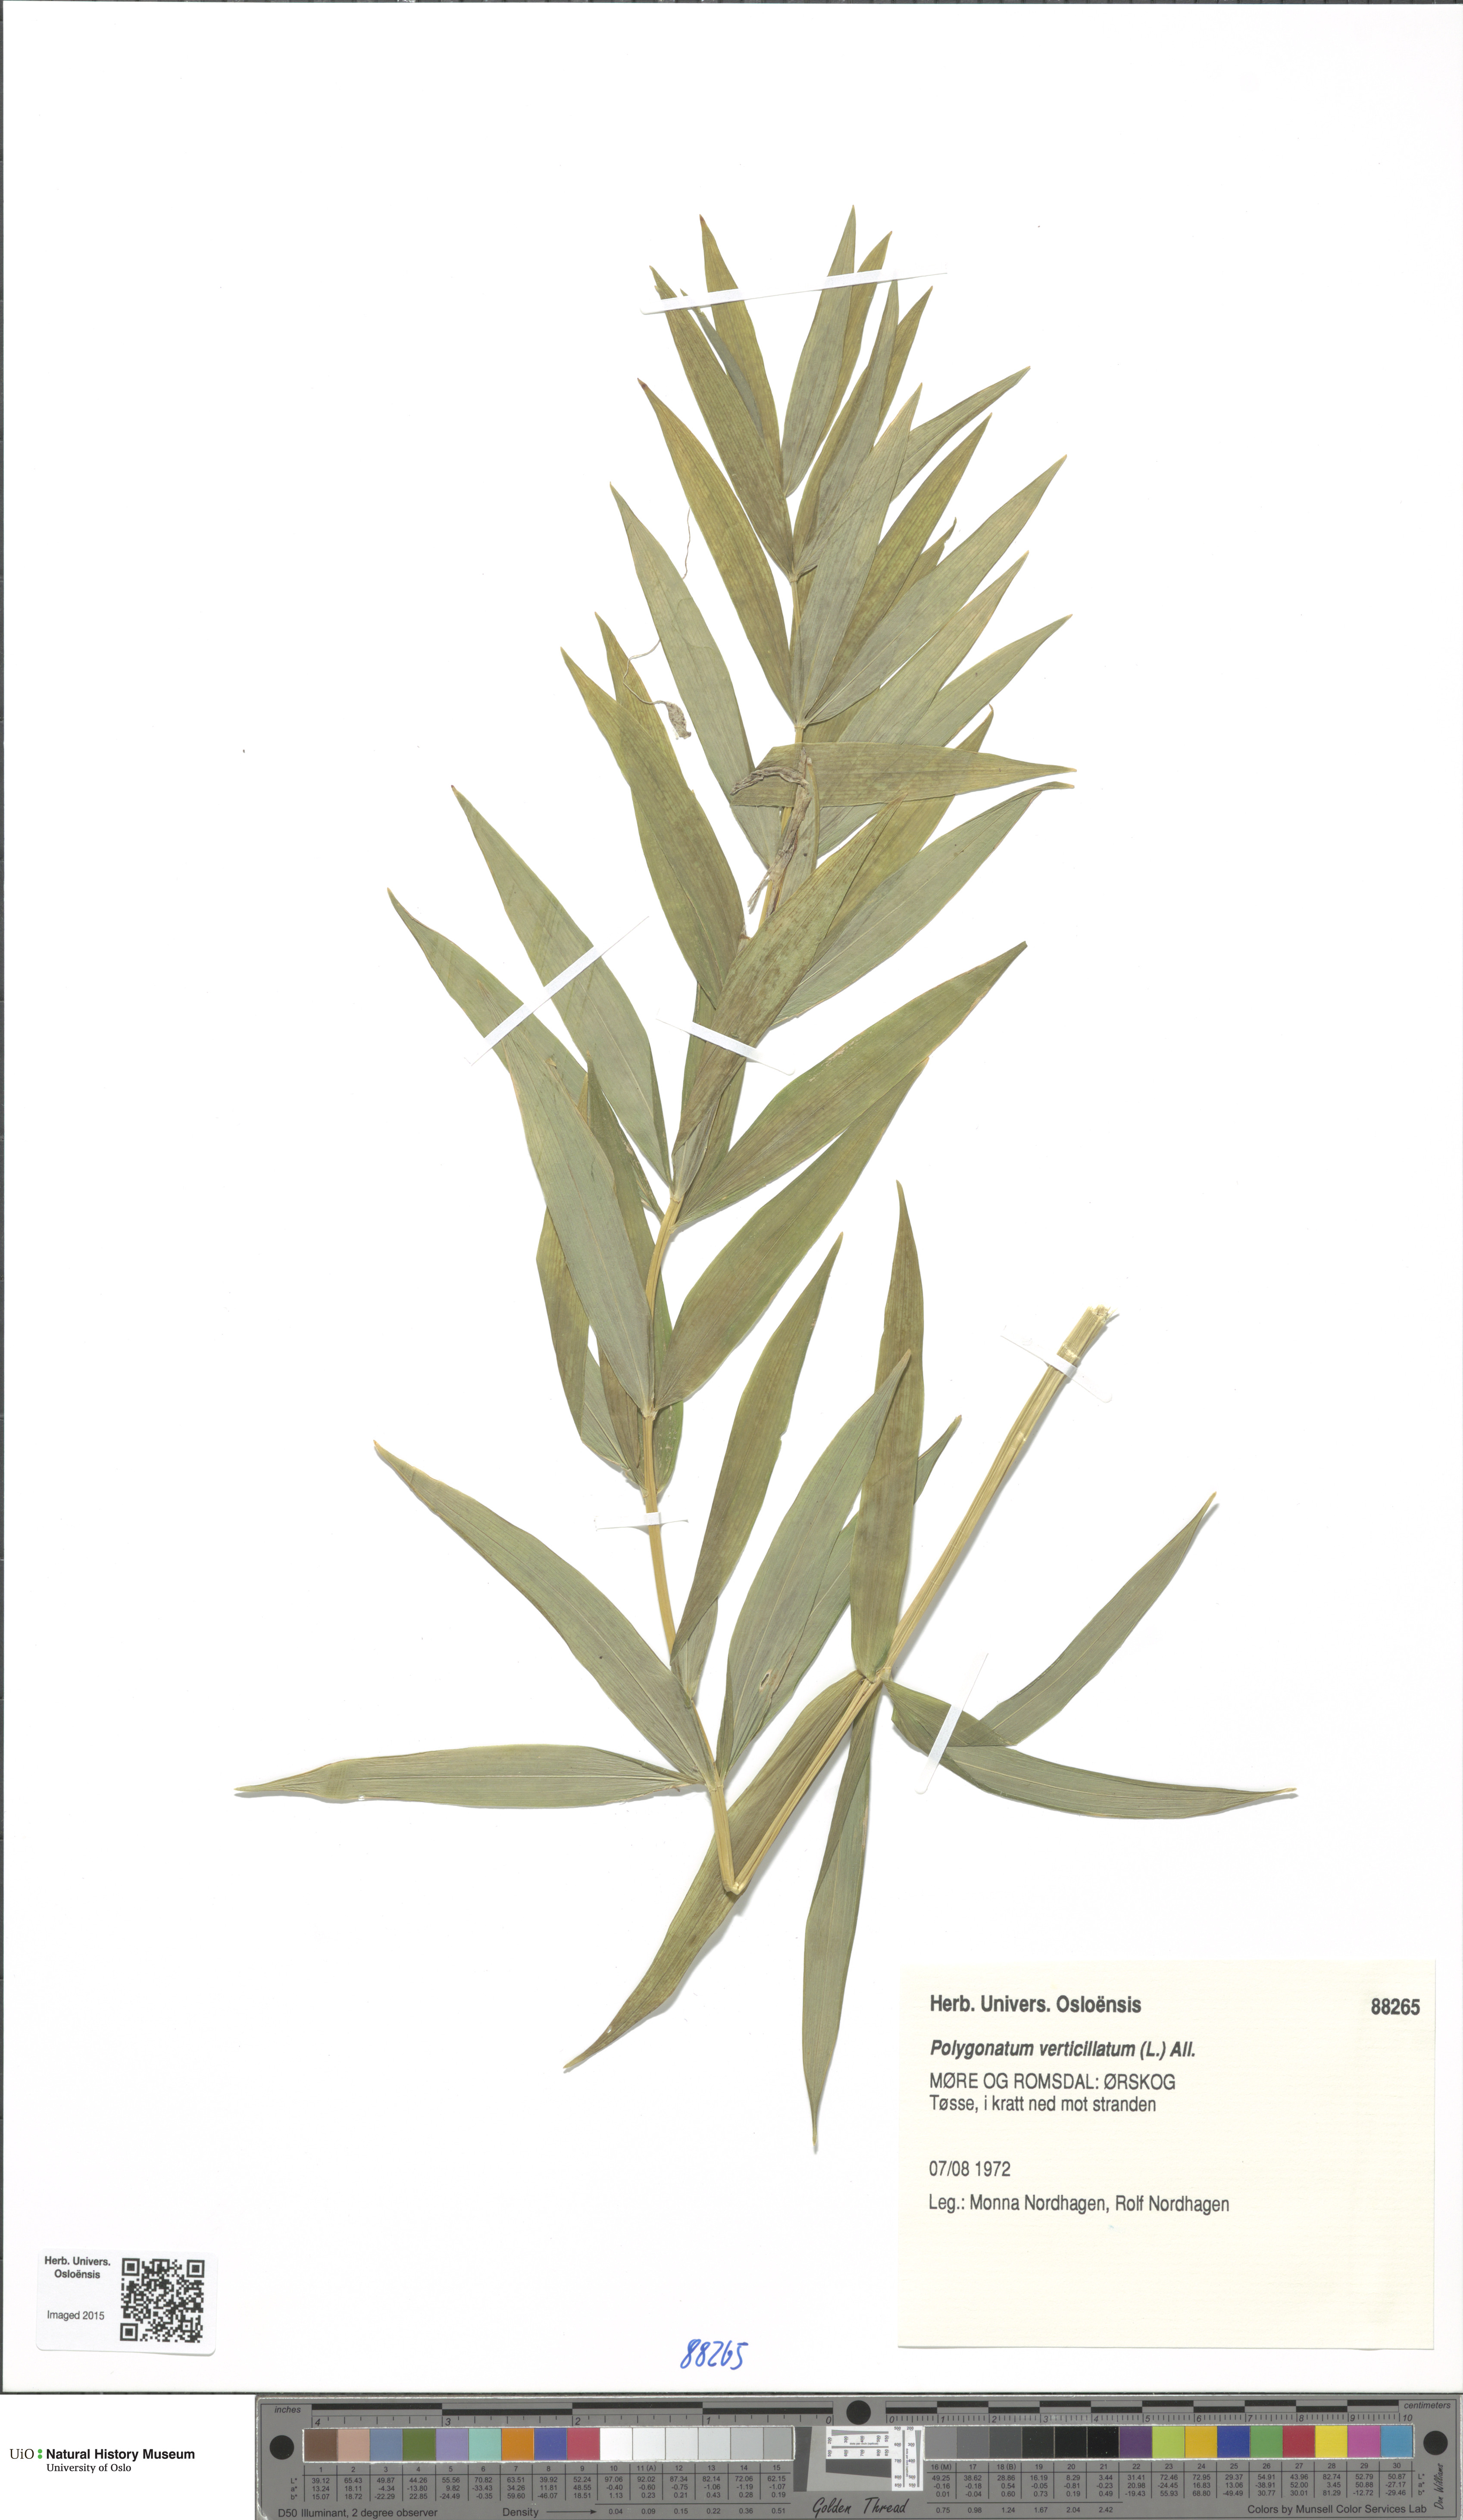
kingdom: Plantae
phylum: Tracheophyta
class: Liliopsida
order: Asparagales
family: Asparagaceae
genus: Polygonatum
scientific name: Polygonatum verticillatum
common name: Whorled solomon's-seal
